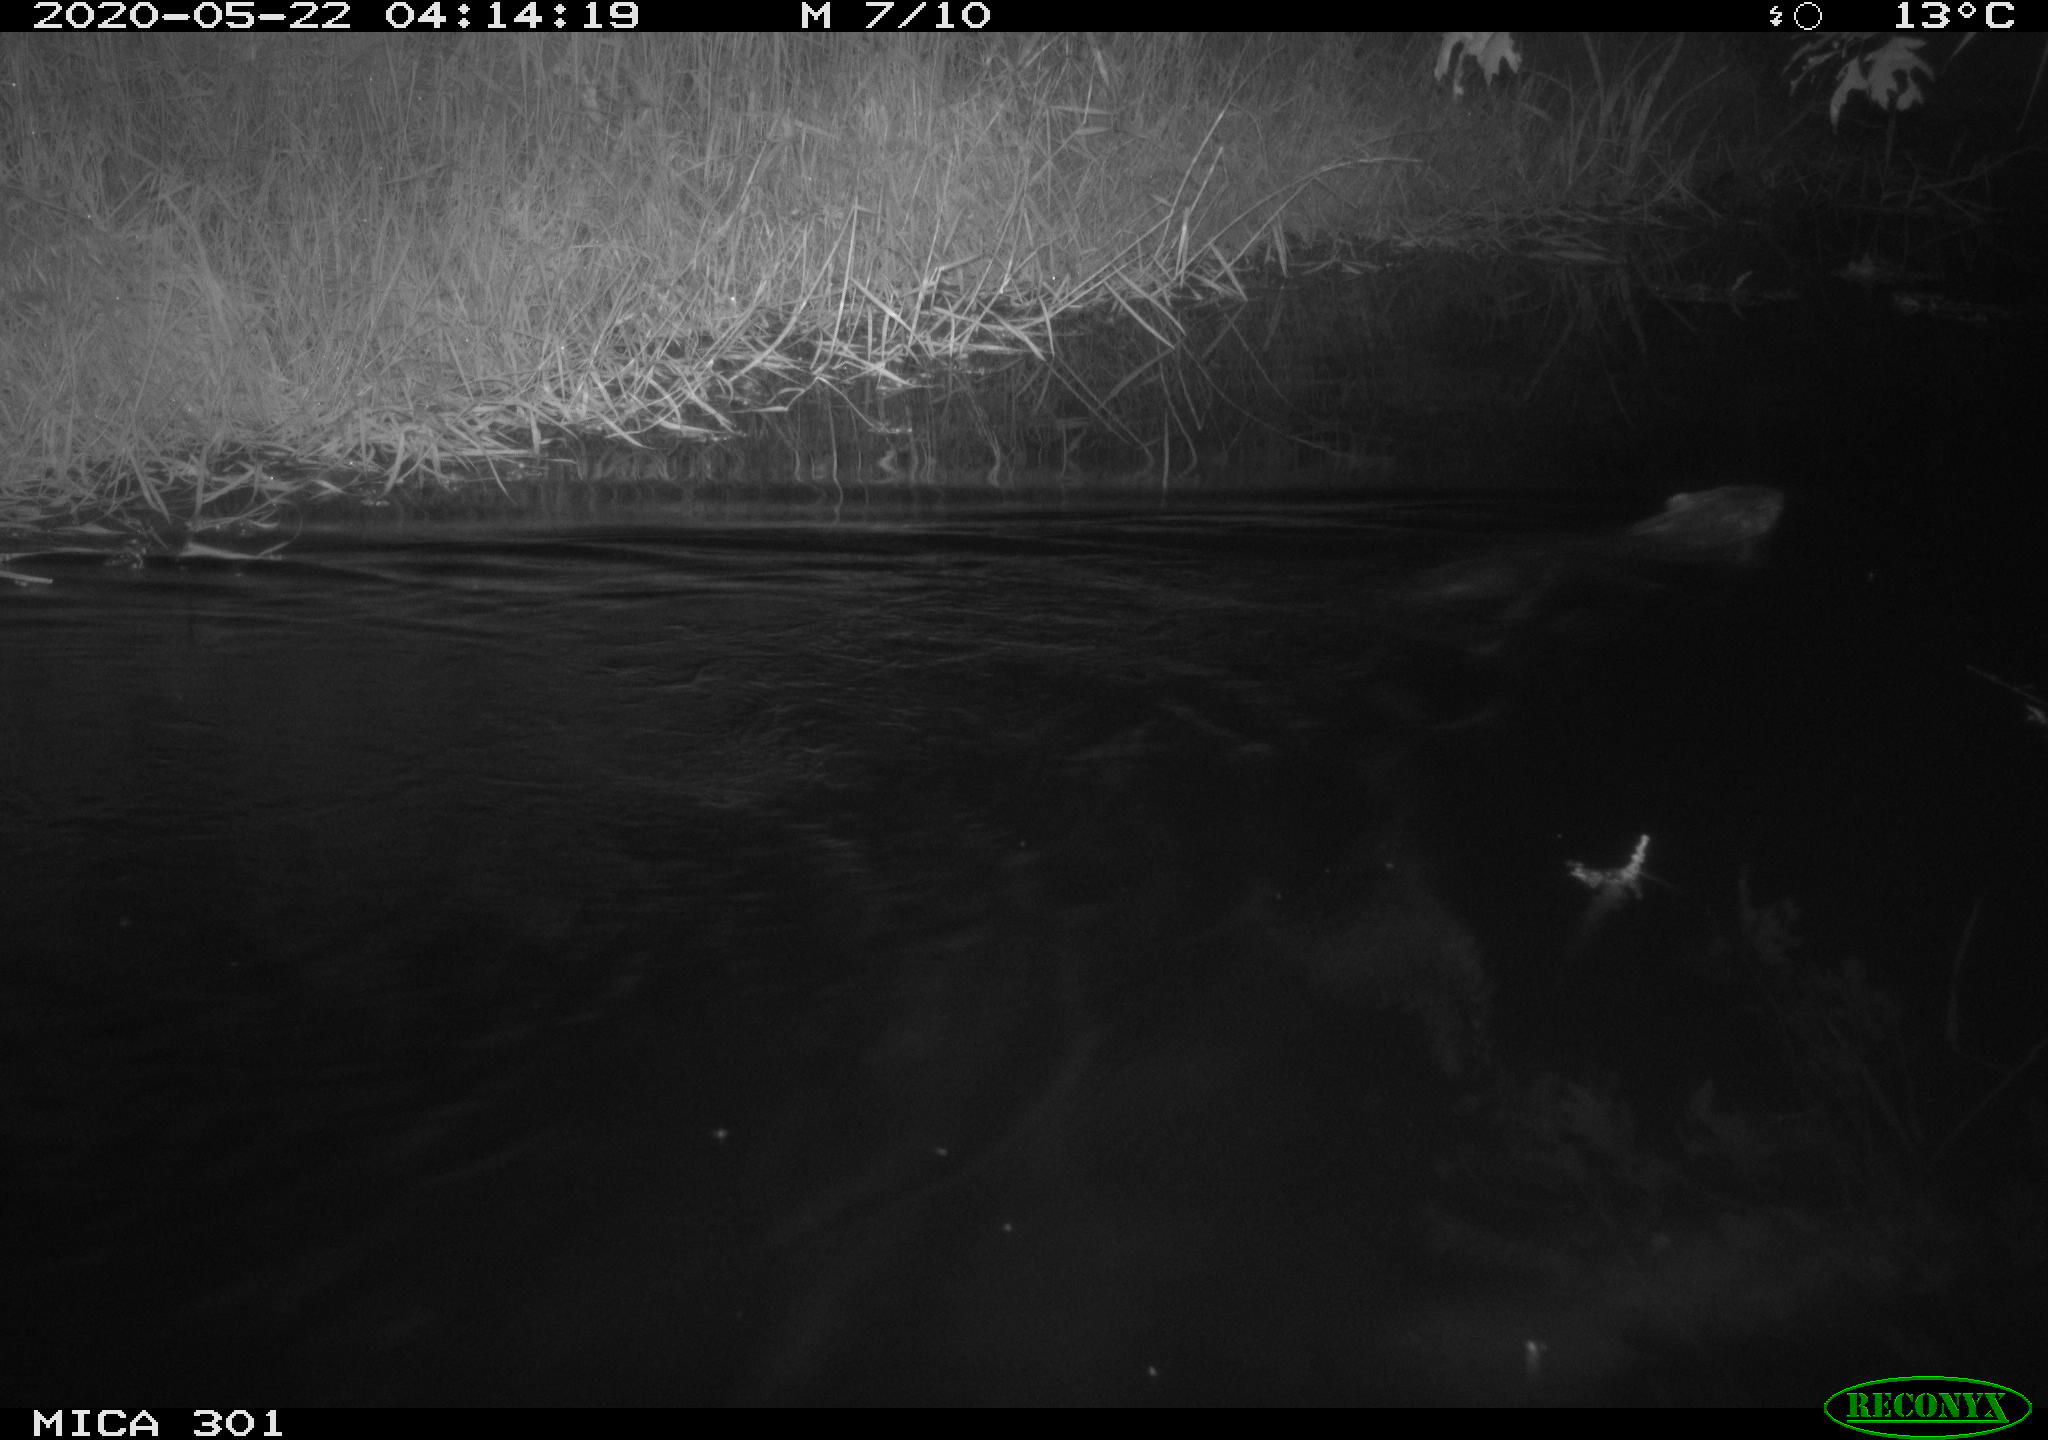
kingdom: Animalia
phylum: Chordata
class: Mammalia
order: Rodentia
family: Castoridae
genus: Castor
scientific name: Castor fiber
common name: Eurasian beaver
